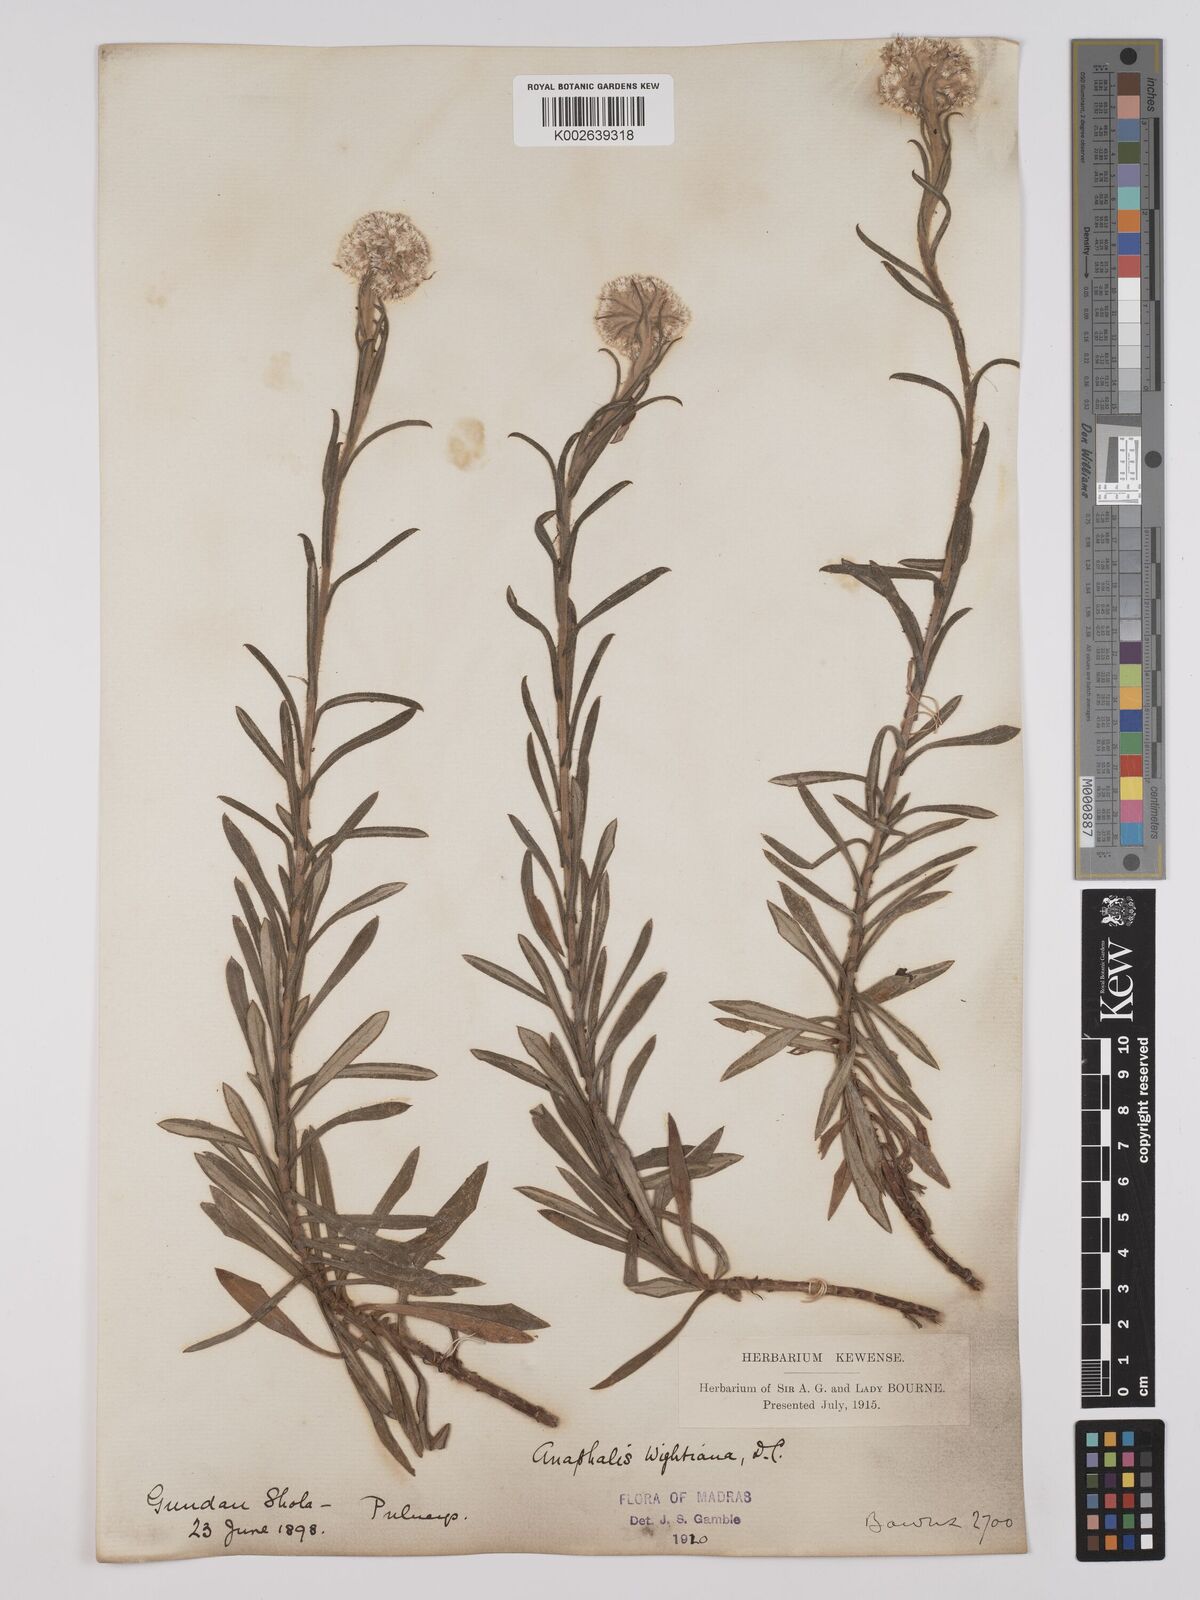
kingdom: Plantae
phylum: Tracheophyta
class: Magnoliopsida
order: Asterales
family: Asteraceae
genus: Anaphalis
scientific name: Anaphalis wightiana
